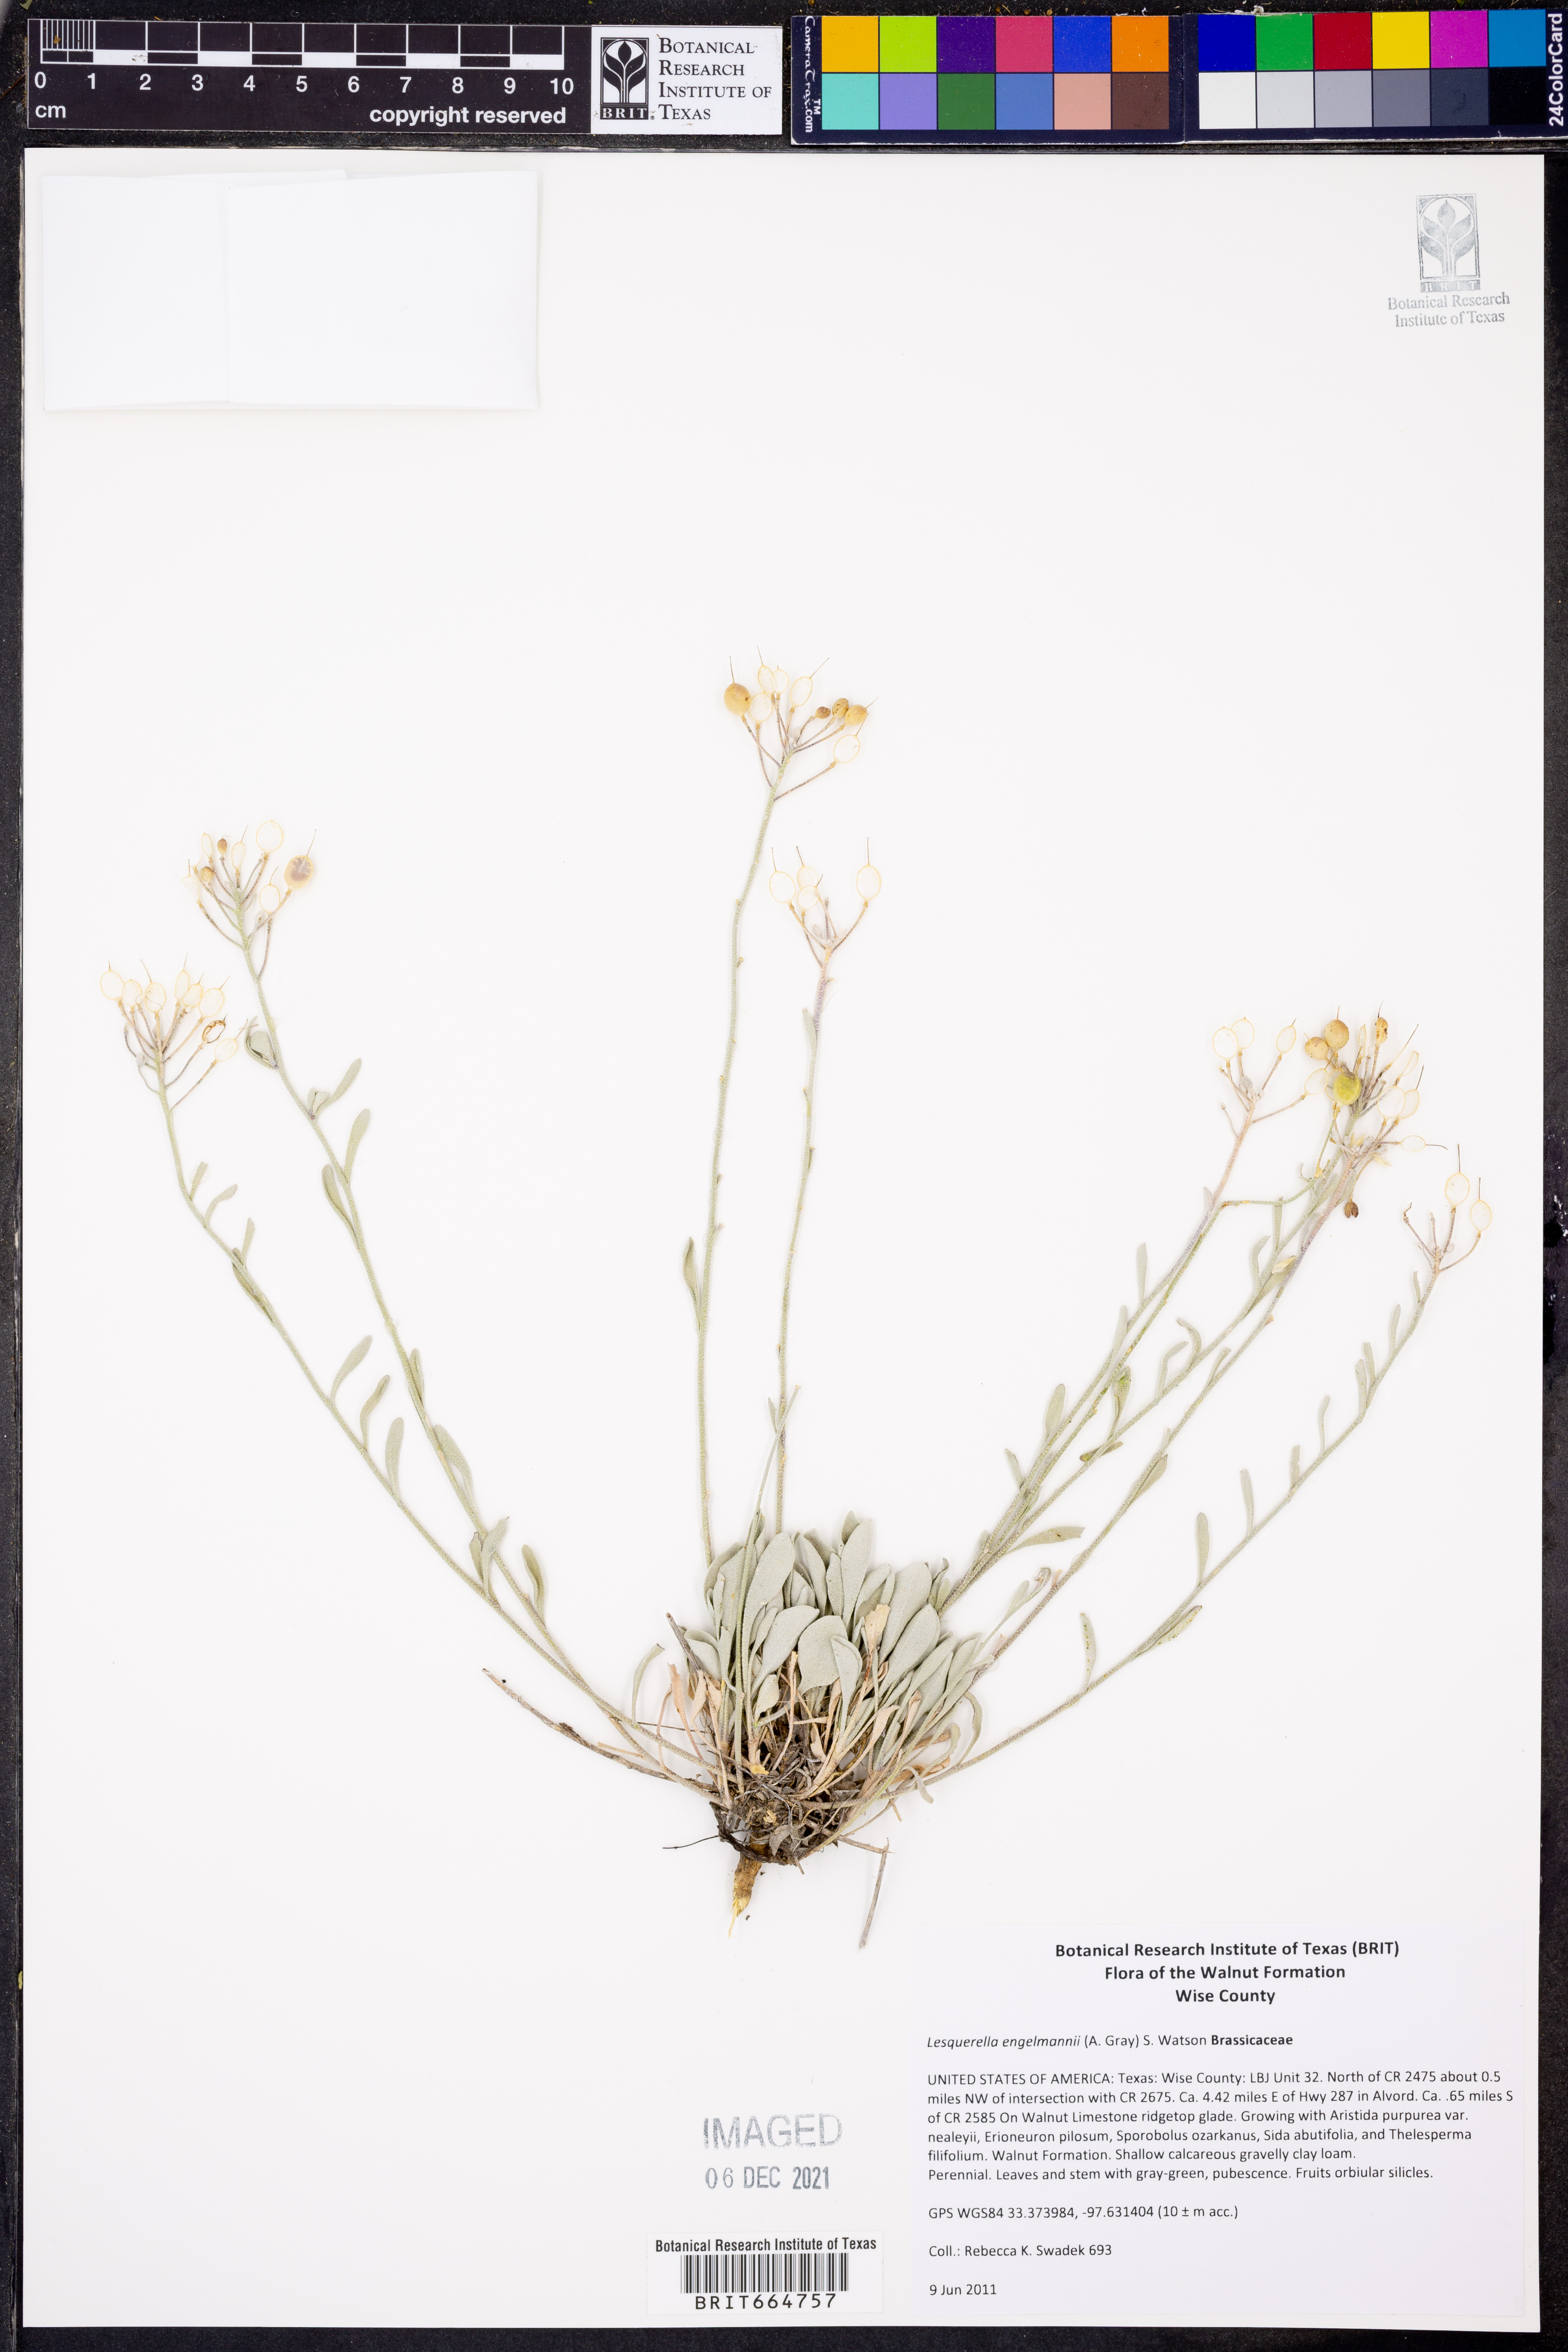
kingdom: Plantae
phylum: Tracheophyta
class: Magnoliopsida
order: Brassicales
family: Brassicaceae
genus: Physaria
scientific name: Physaria engelmannii
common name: Engelmann's bladderpod
